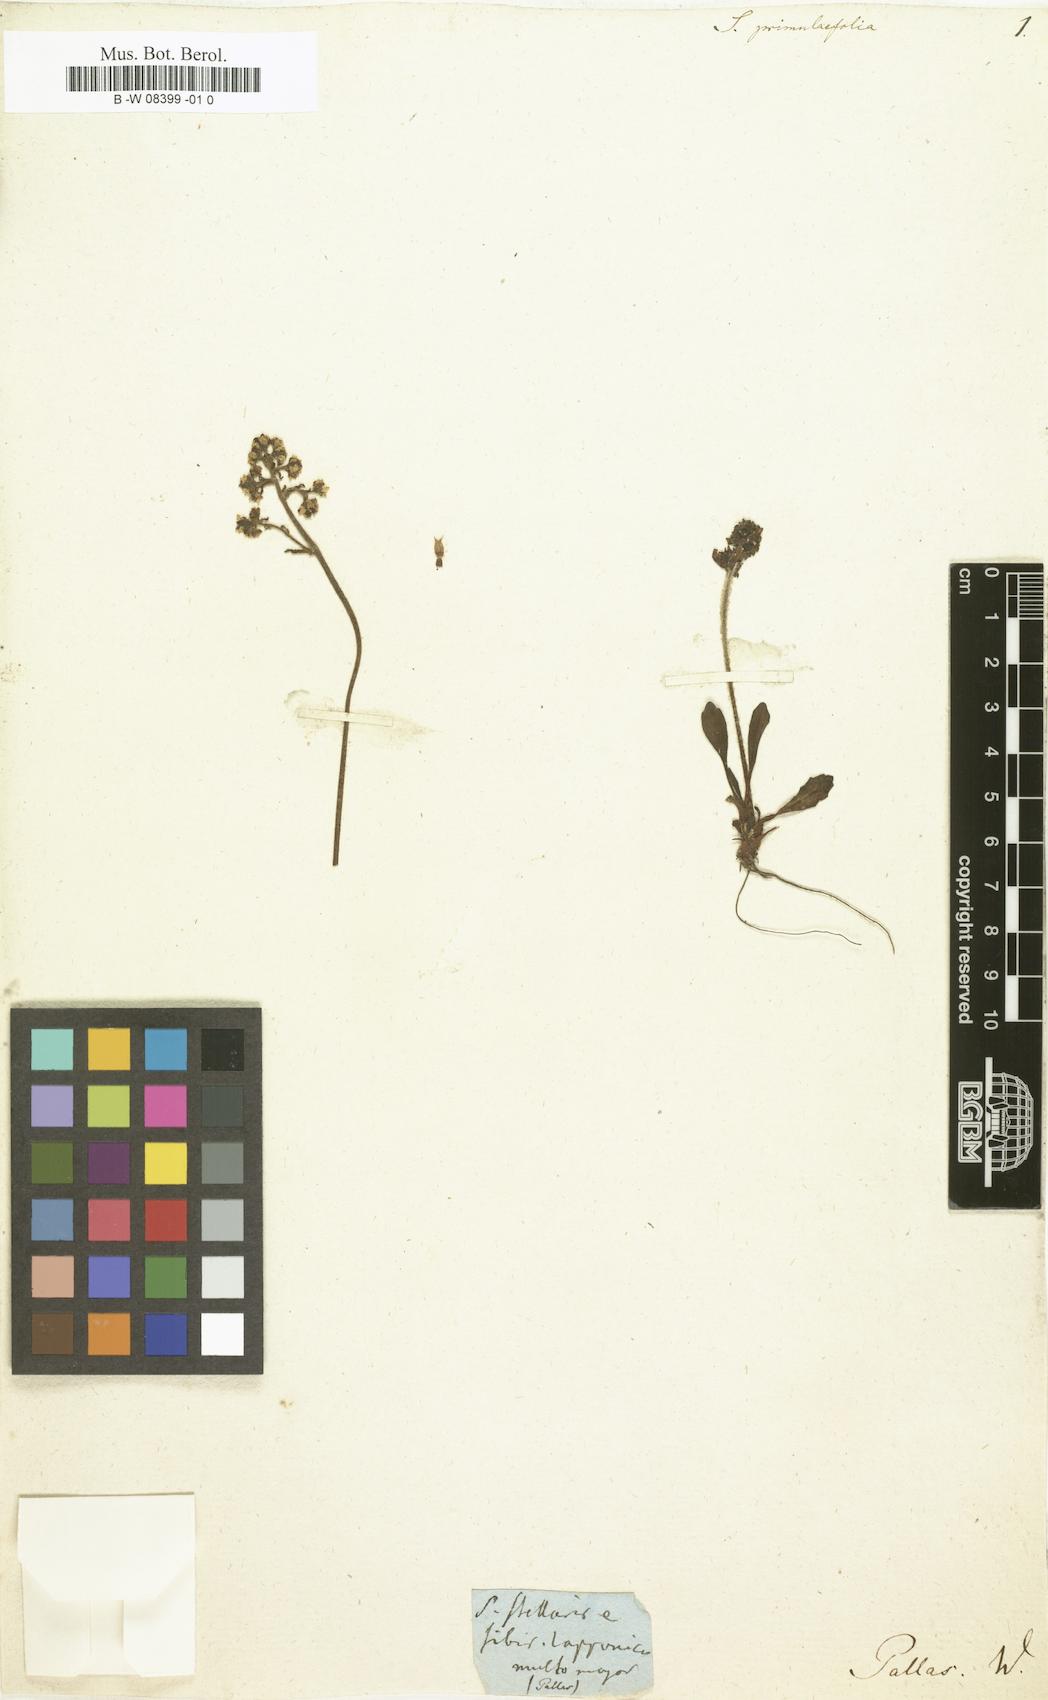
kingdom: Plantae
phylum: Tracheophyta
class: Magnoliopsida
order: Saxifragales
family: Saxifragaceae
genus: Micranthes
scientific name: Micranthes nivalis
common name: Alpine saxifrage
